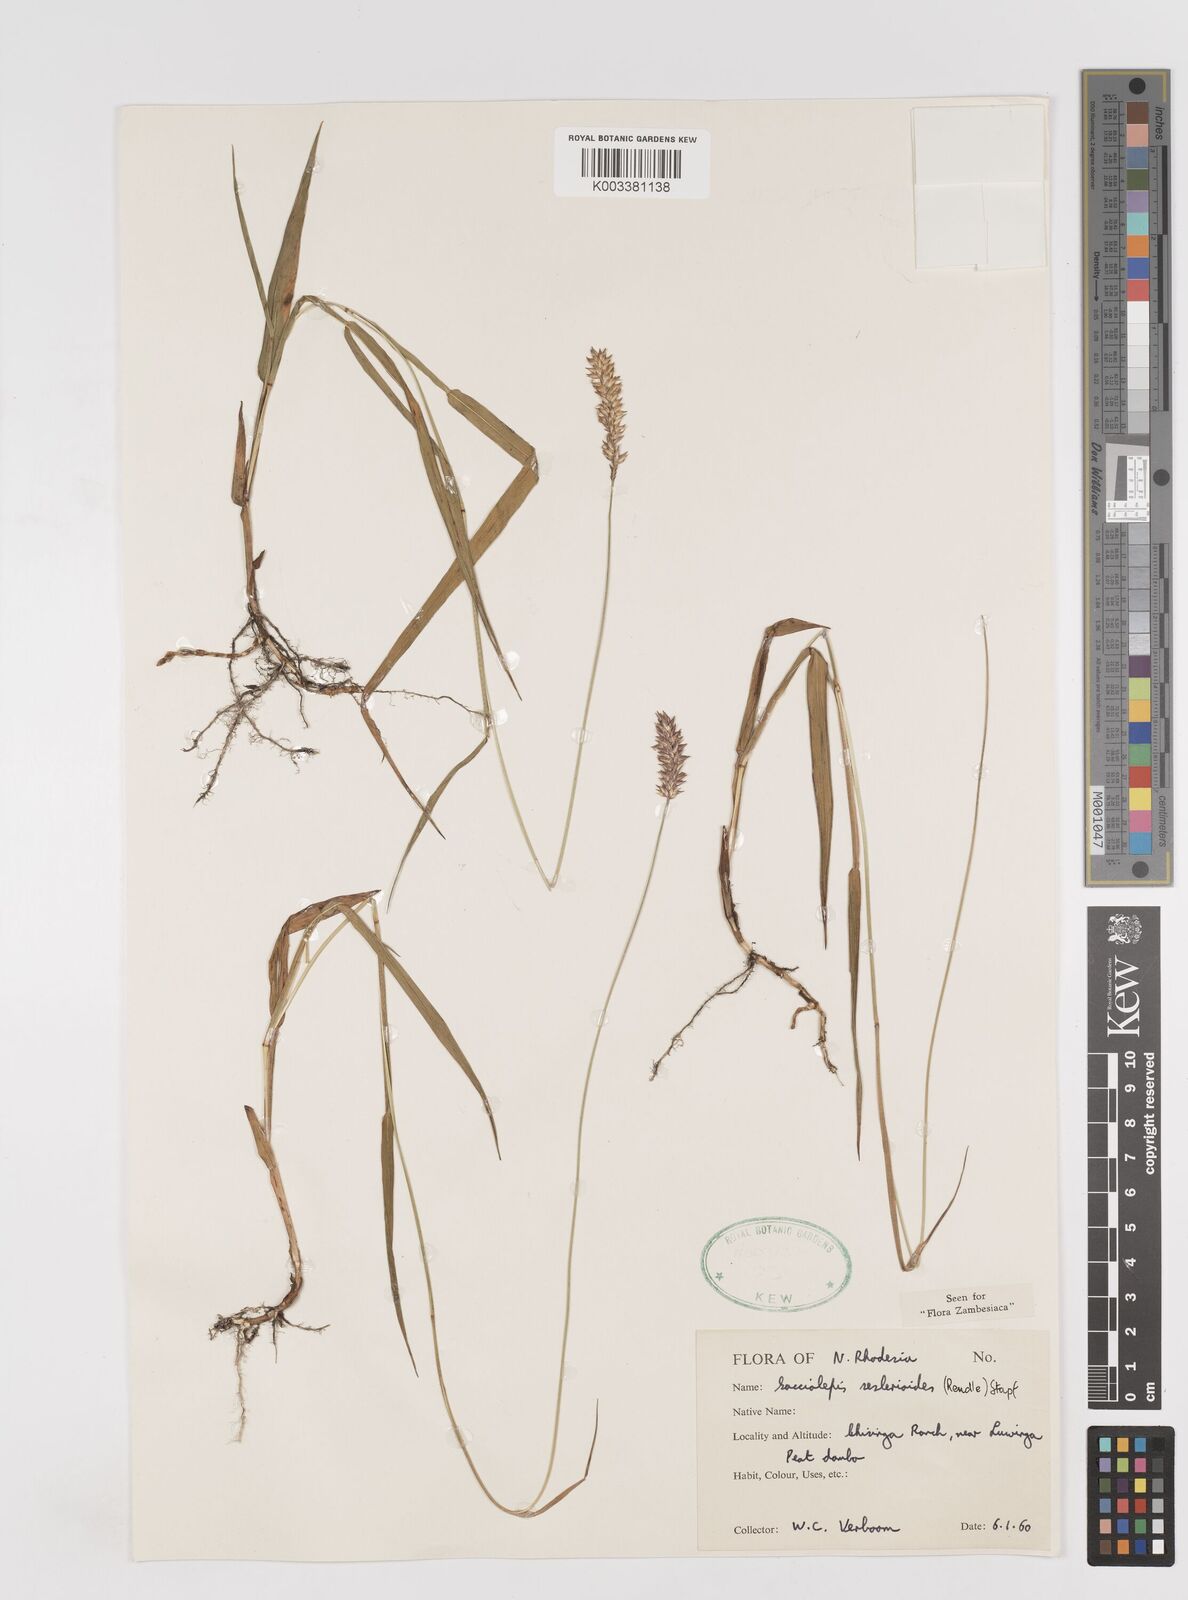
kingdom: Plantae
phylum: Tracheophyta
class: Liliopsida
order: Poales
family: Poaceae
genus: Sacciolepis
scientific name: Sacciolepis seslerioides
